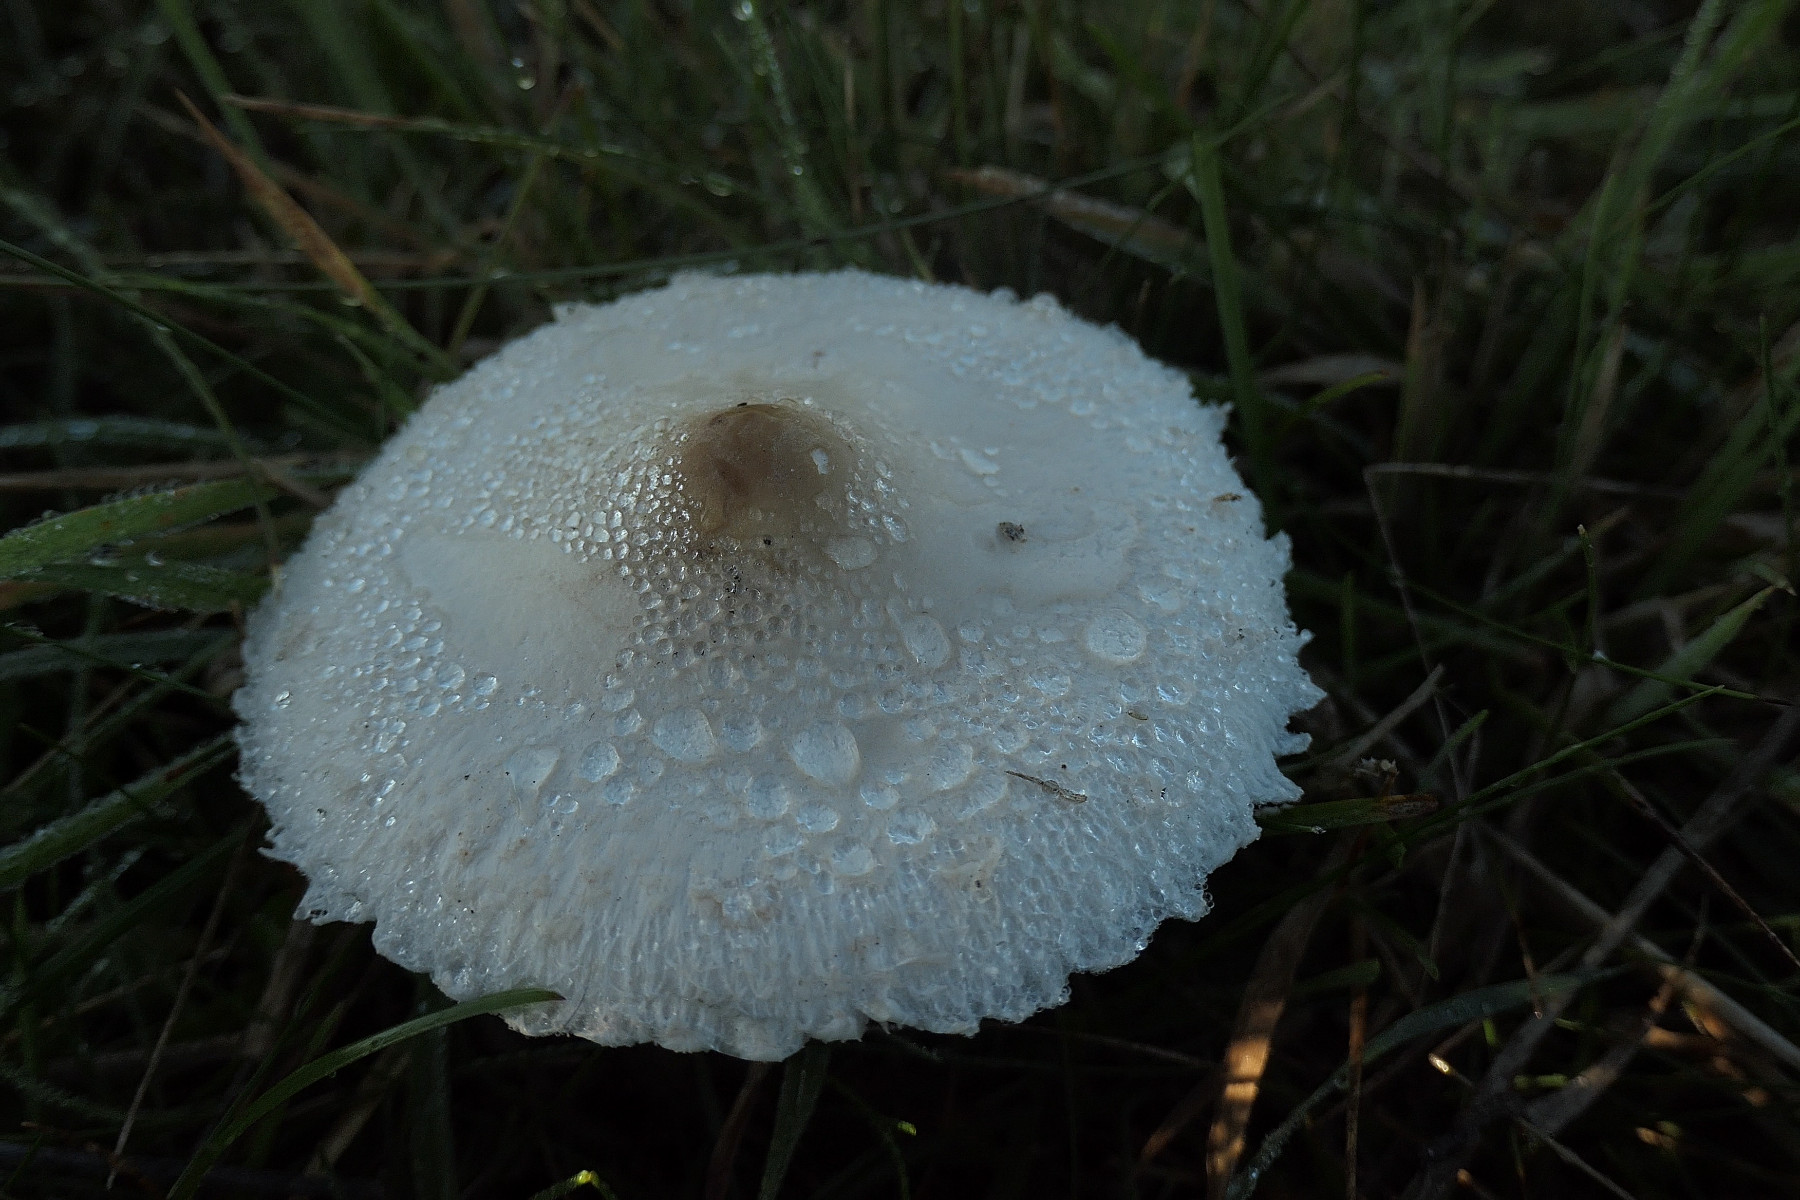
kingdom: Fungi
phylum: Basidiomycota
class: Agaricomycetes
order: Agaricales
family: Agaricaceae
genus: Macrolepiota
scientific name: Macrolepiota excoriata
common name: mark-kæmpeparasolhat
